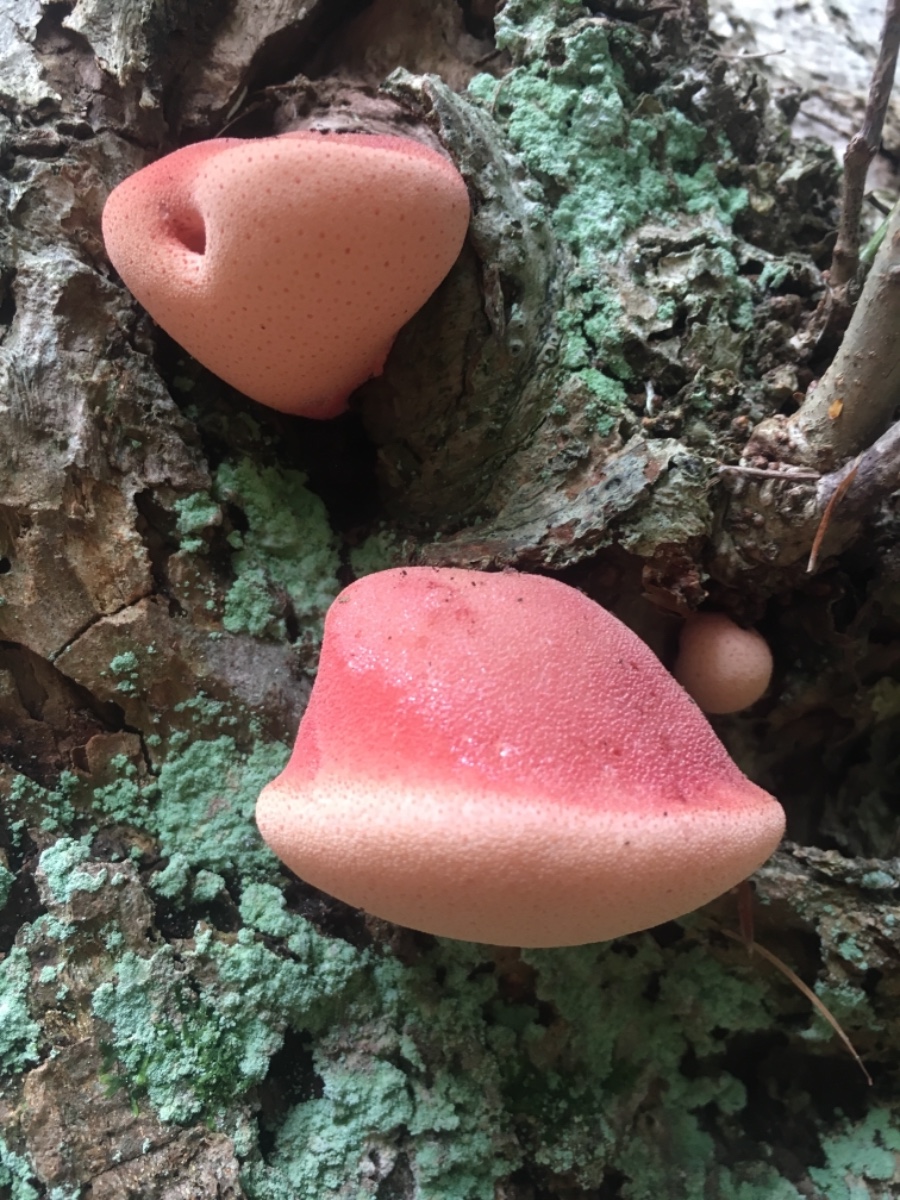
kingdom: Fungi
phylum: Basidiomycota
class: Agaricomycetes
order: Agaricales
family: Fistulinaceae
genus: Fistulina
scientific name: Fistulina
